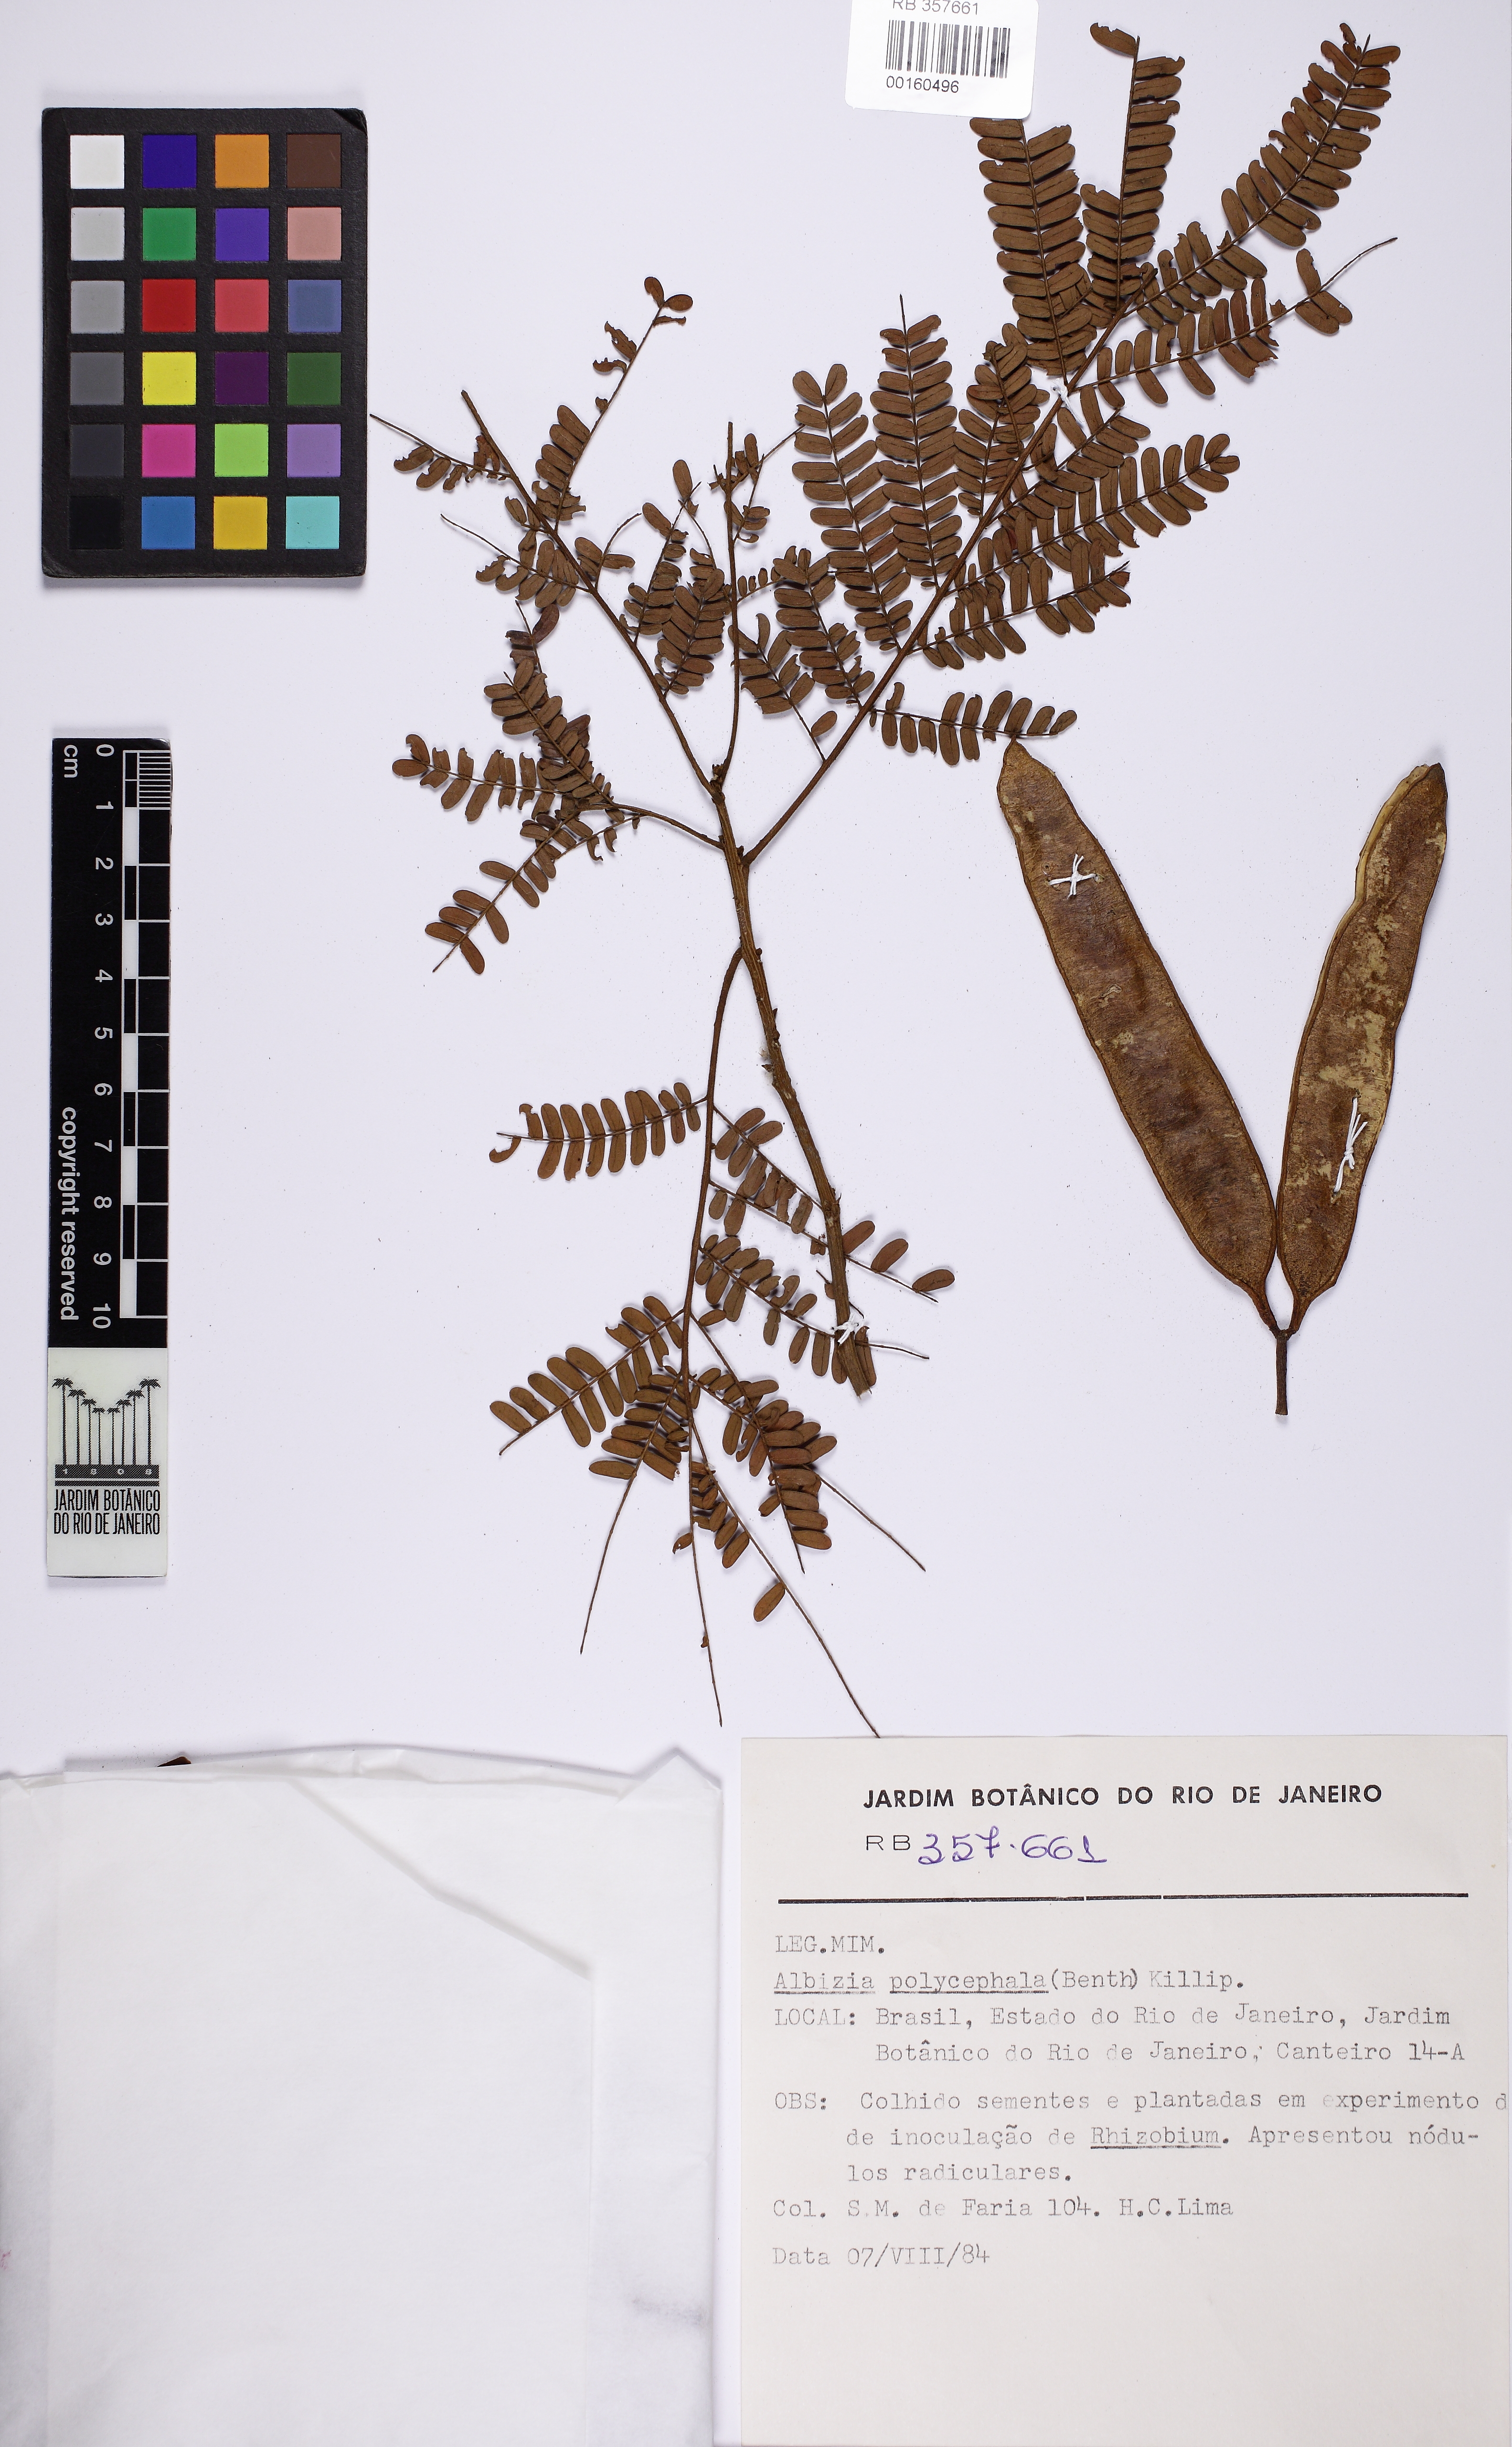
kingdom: Plantae
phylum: Tracheophyta
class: Magnoliopsida
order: Fabales
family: Fabaceae
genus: Albizia
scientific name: Albizia polycephala
